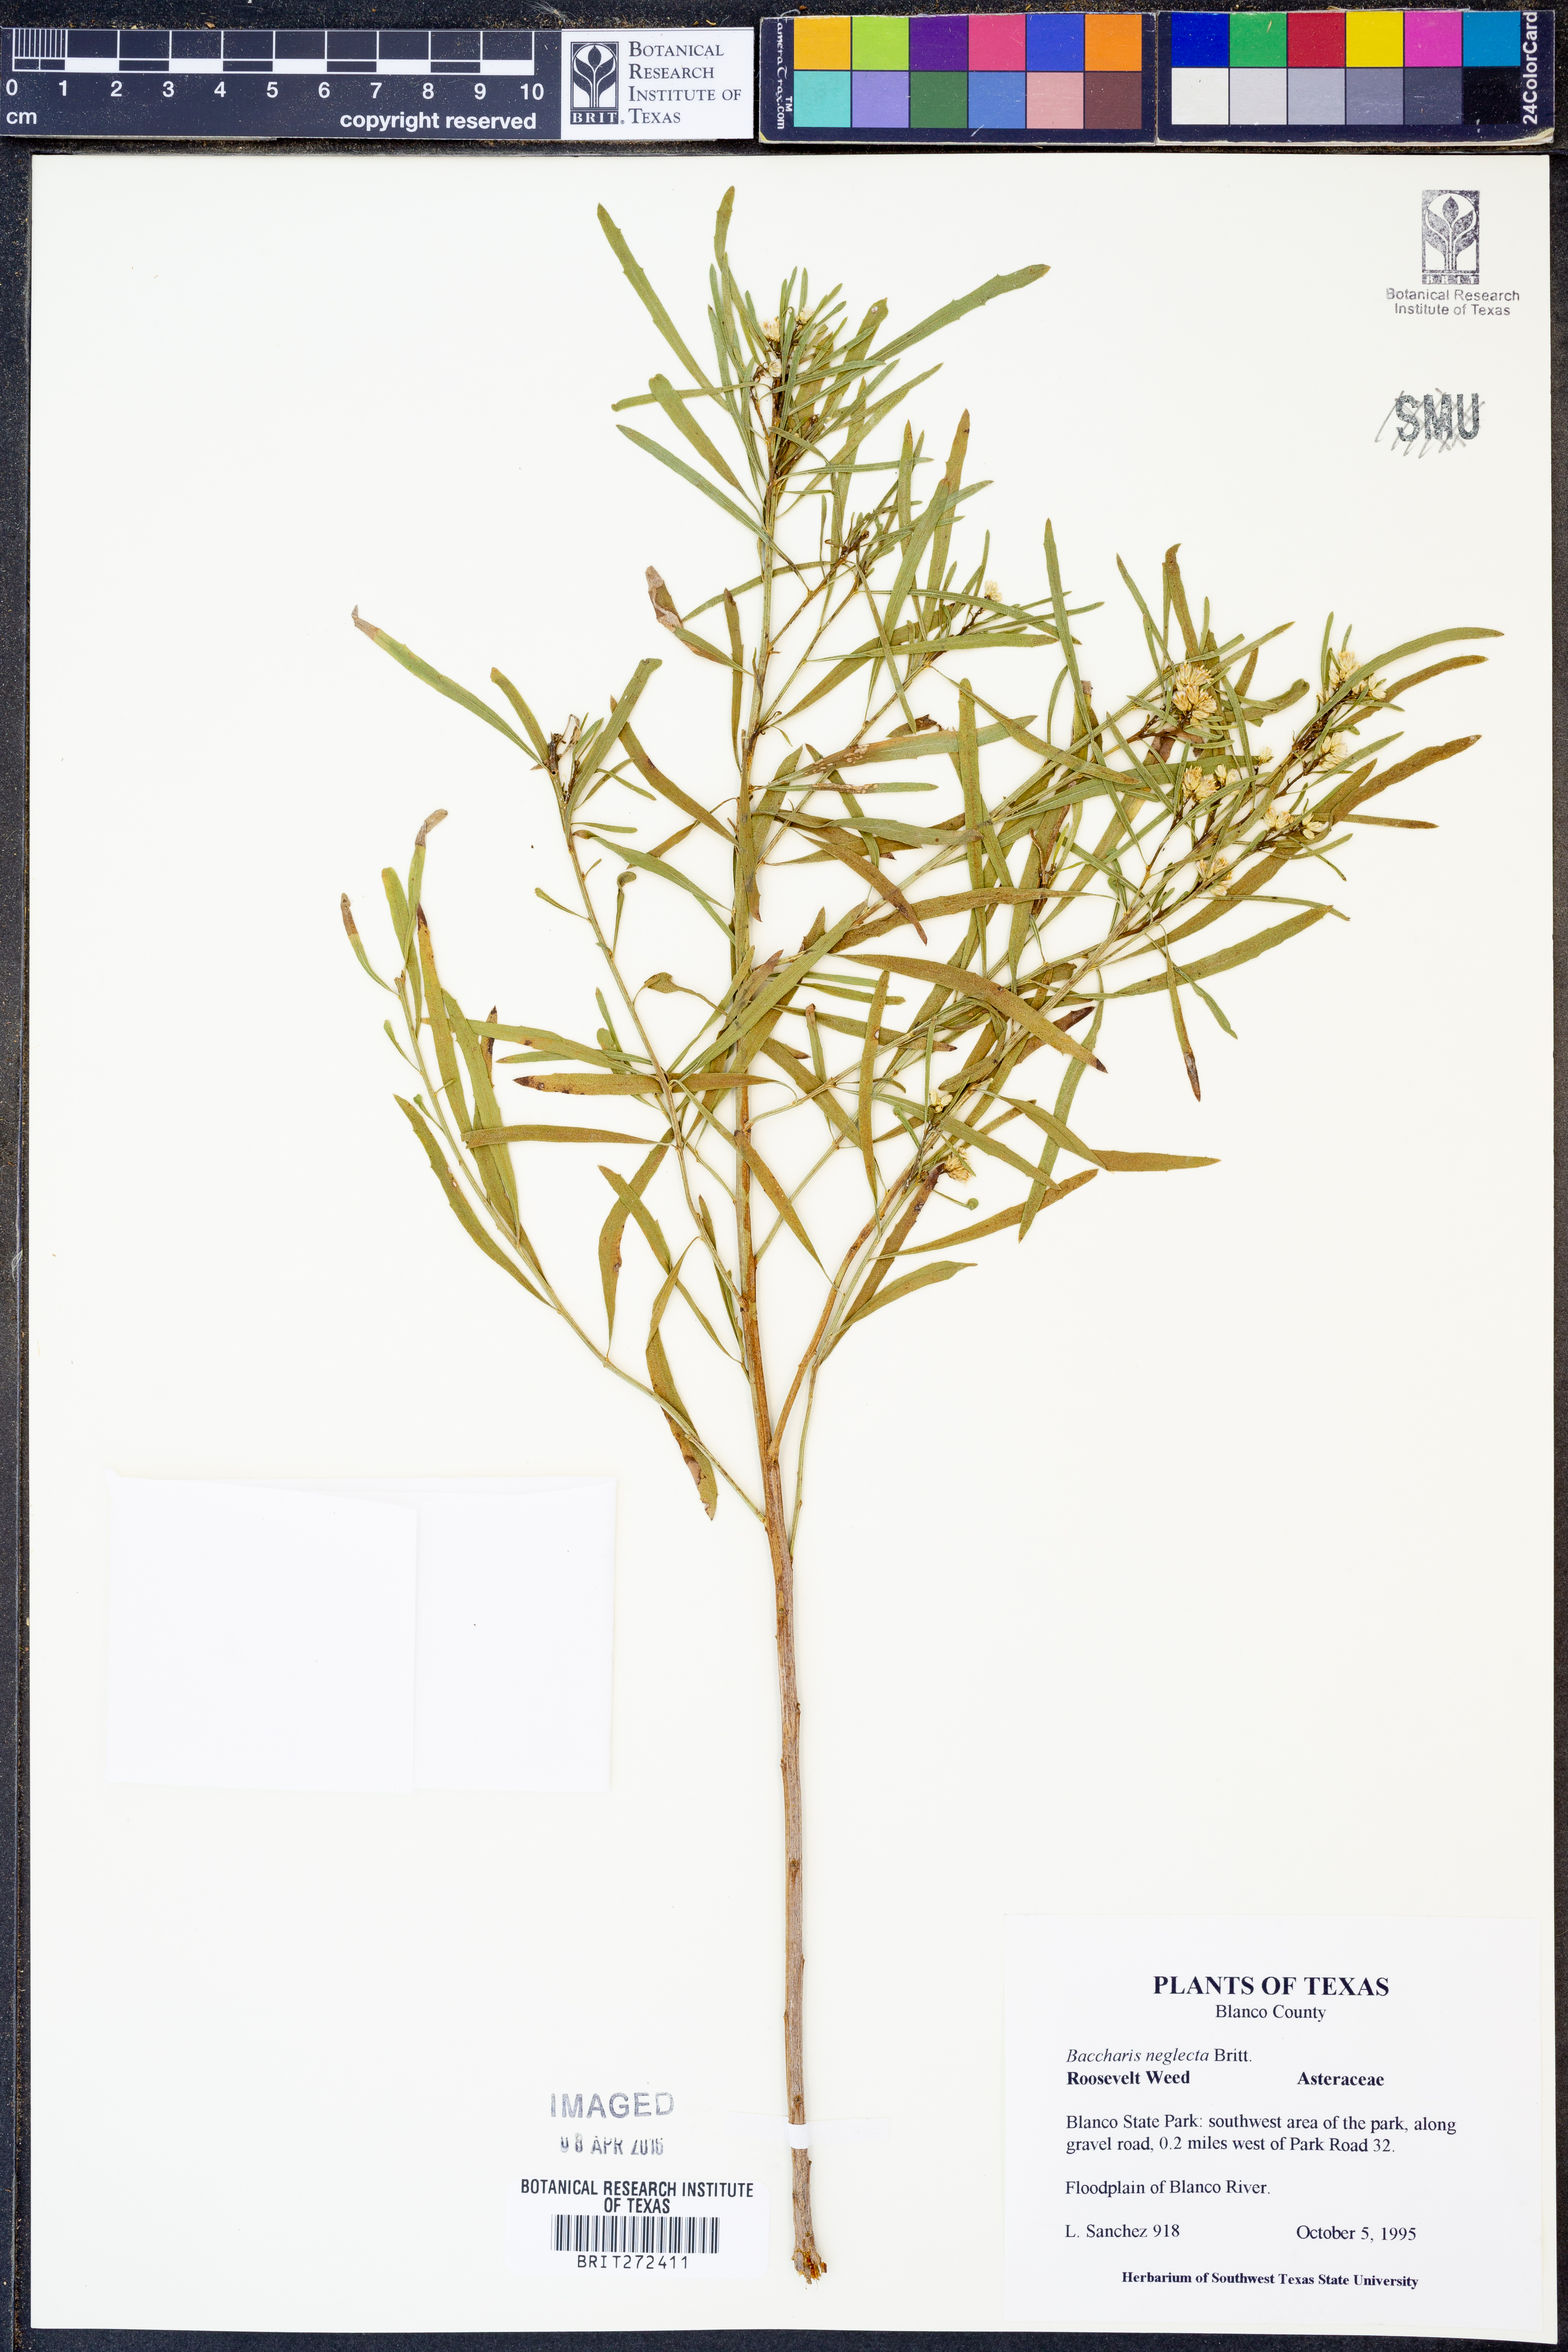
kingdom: Plantae
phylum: Tracheophyta
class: Magnoliopsida
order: Asterales
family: Asteraceae
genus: Baccharis
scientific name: Baccharis neglecta
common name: Roosevelt-weed
